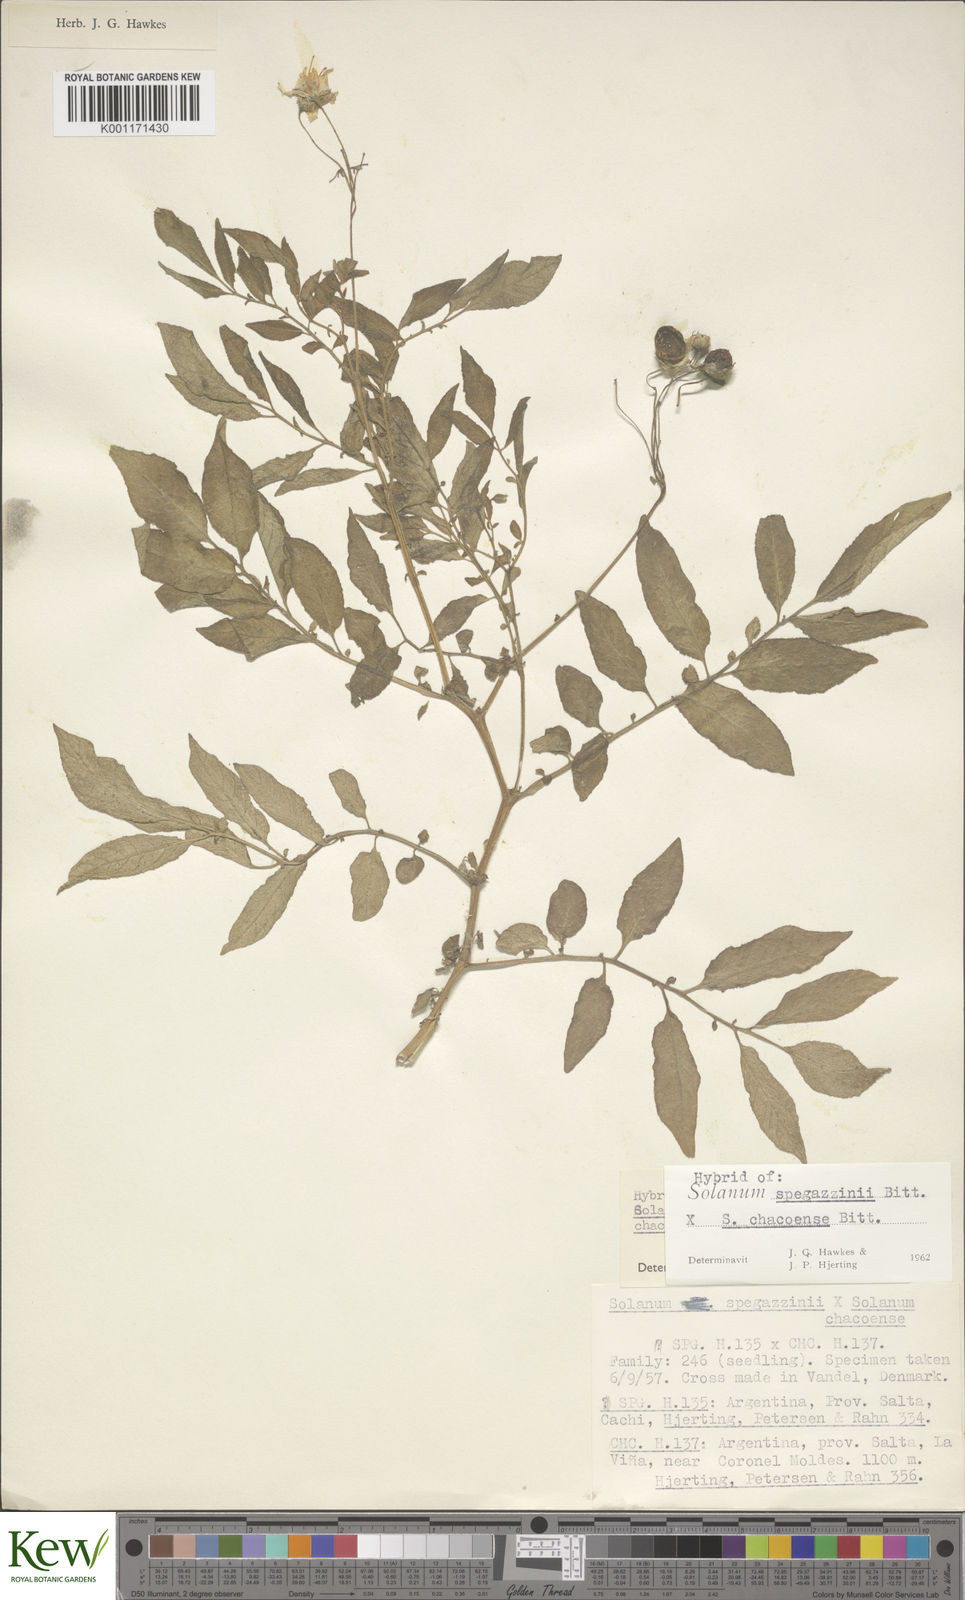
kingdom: Plantae
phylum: Tracheophyta
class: Magnoliopsida
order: Solanales
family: Solanaceae
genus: Solanum
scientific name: Solanum brevicaule
